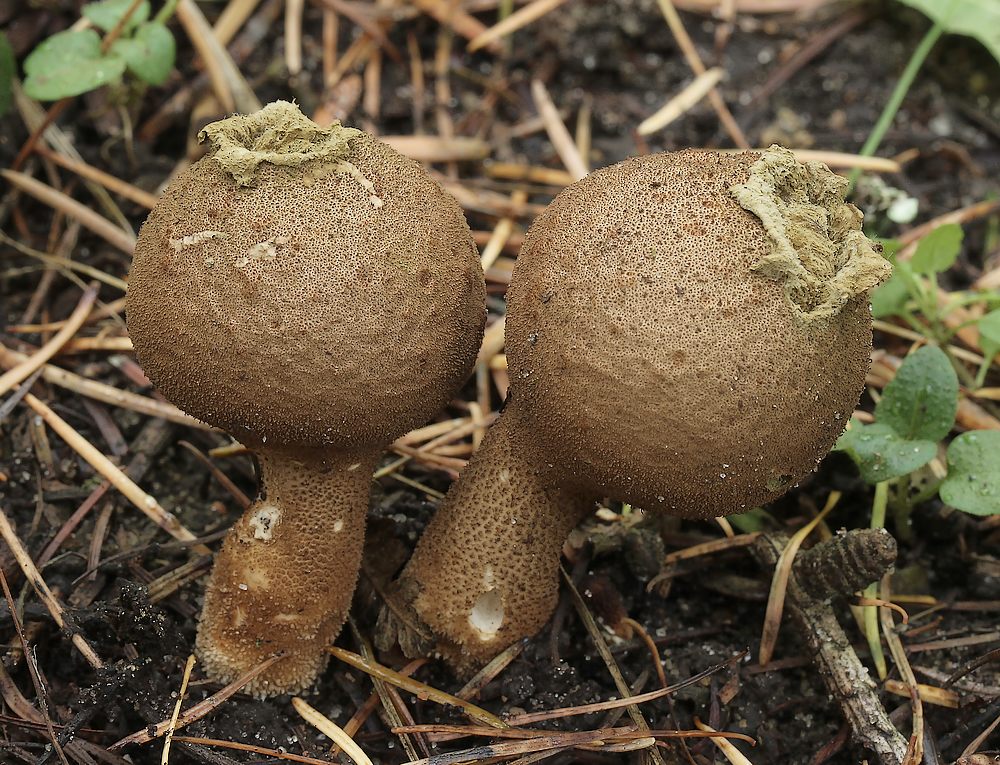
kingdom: Fungi
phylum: Basidiomycota
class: Agaricomycetes
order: Agaricales
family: Lycoperdaceae
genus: Apioperdon
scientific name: Apioperdon pyriforme
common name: pære-støvbold
